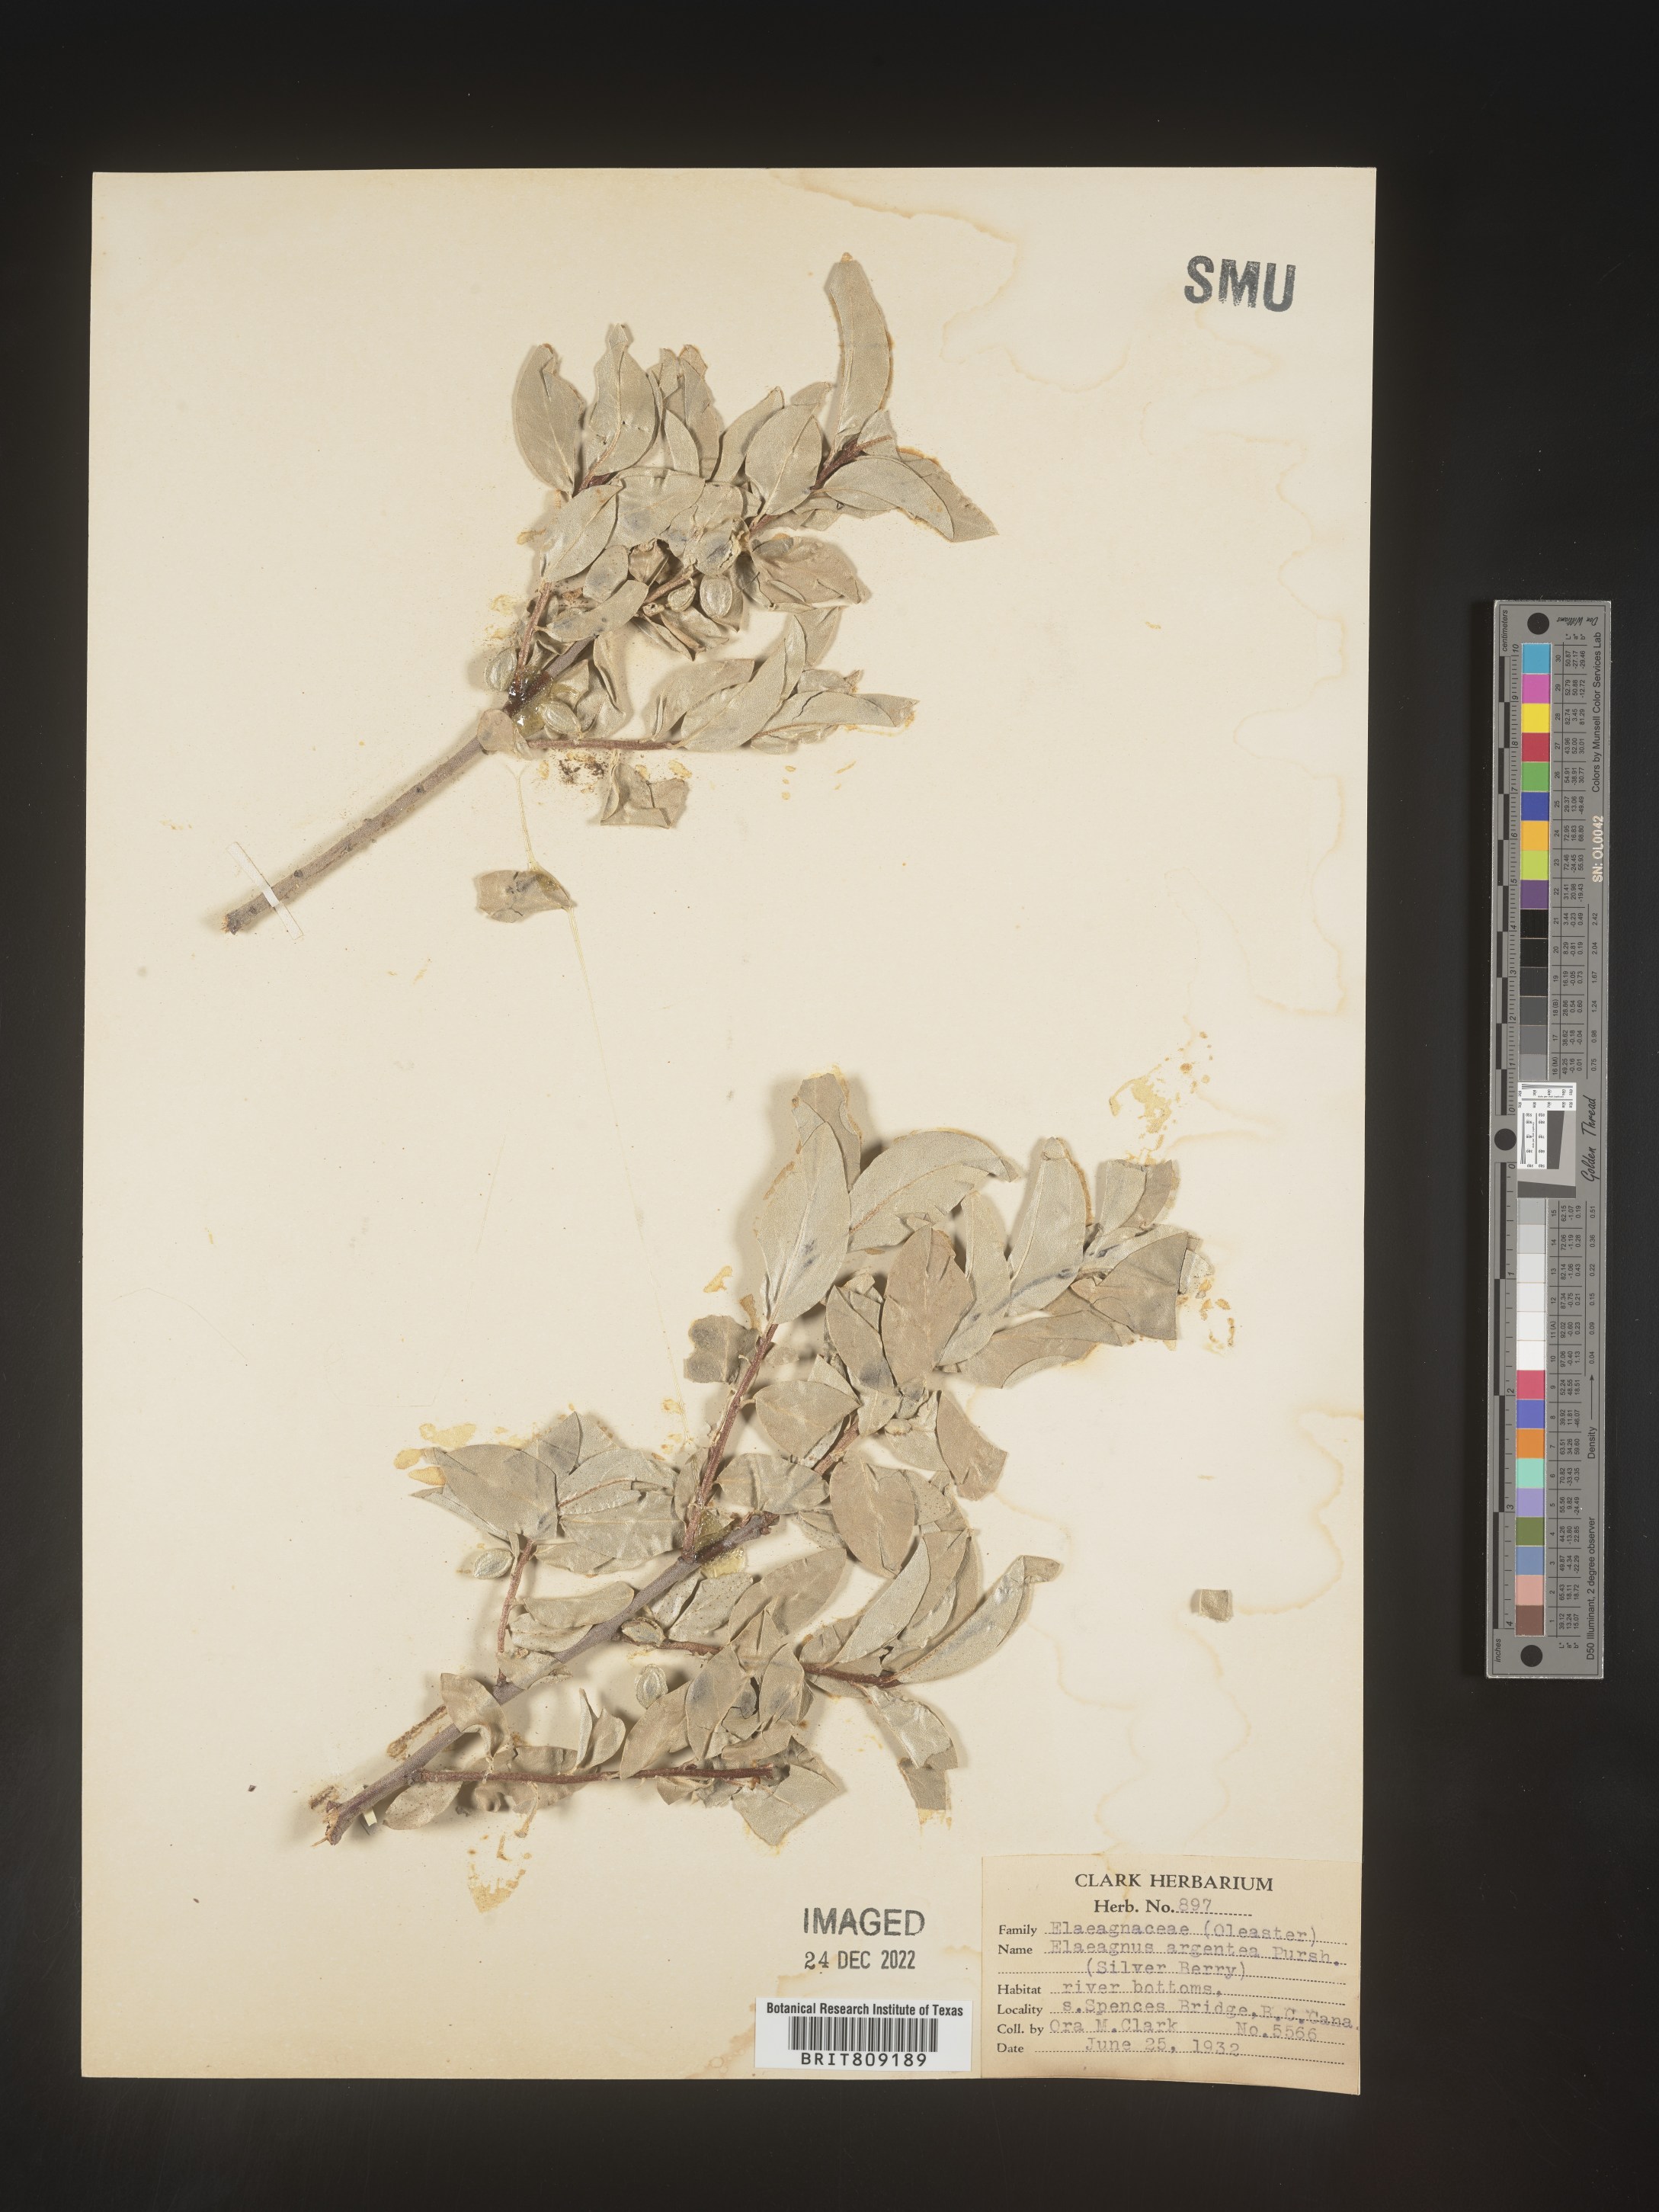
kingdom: Plantae
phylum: Tracheophyta
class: Magnoliopsida
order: Rosales
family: Elaeagnaceae
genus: Elaeagnus
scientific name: Elaeagnus
